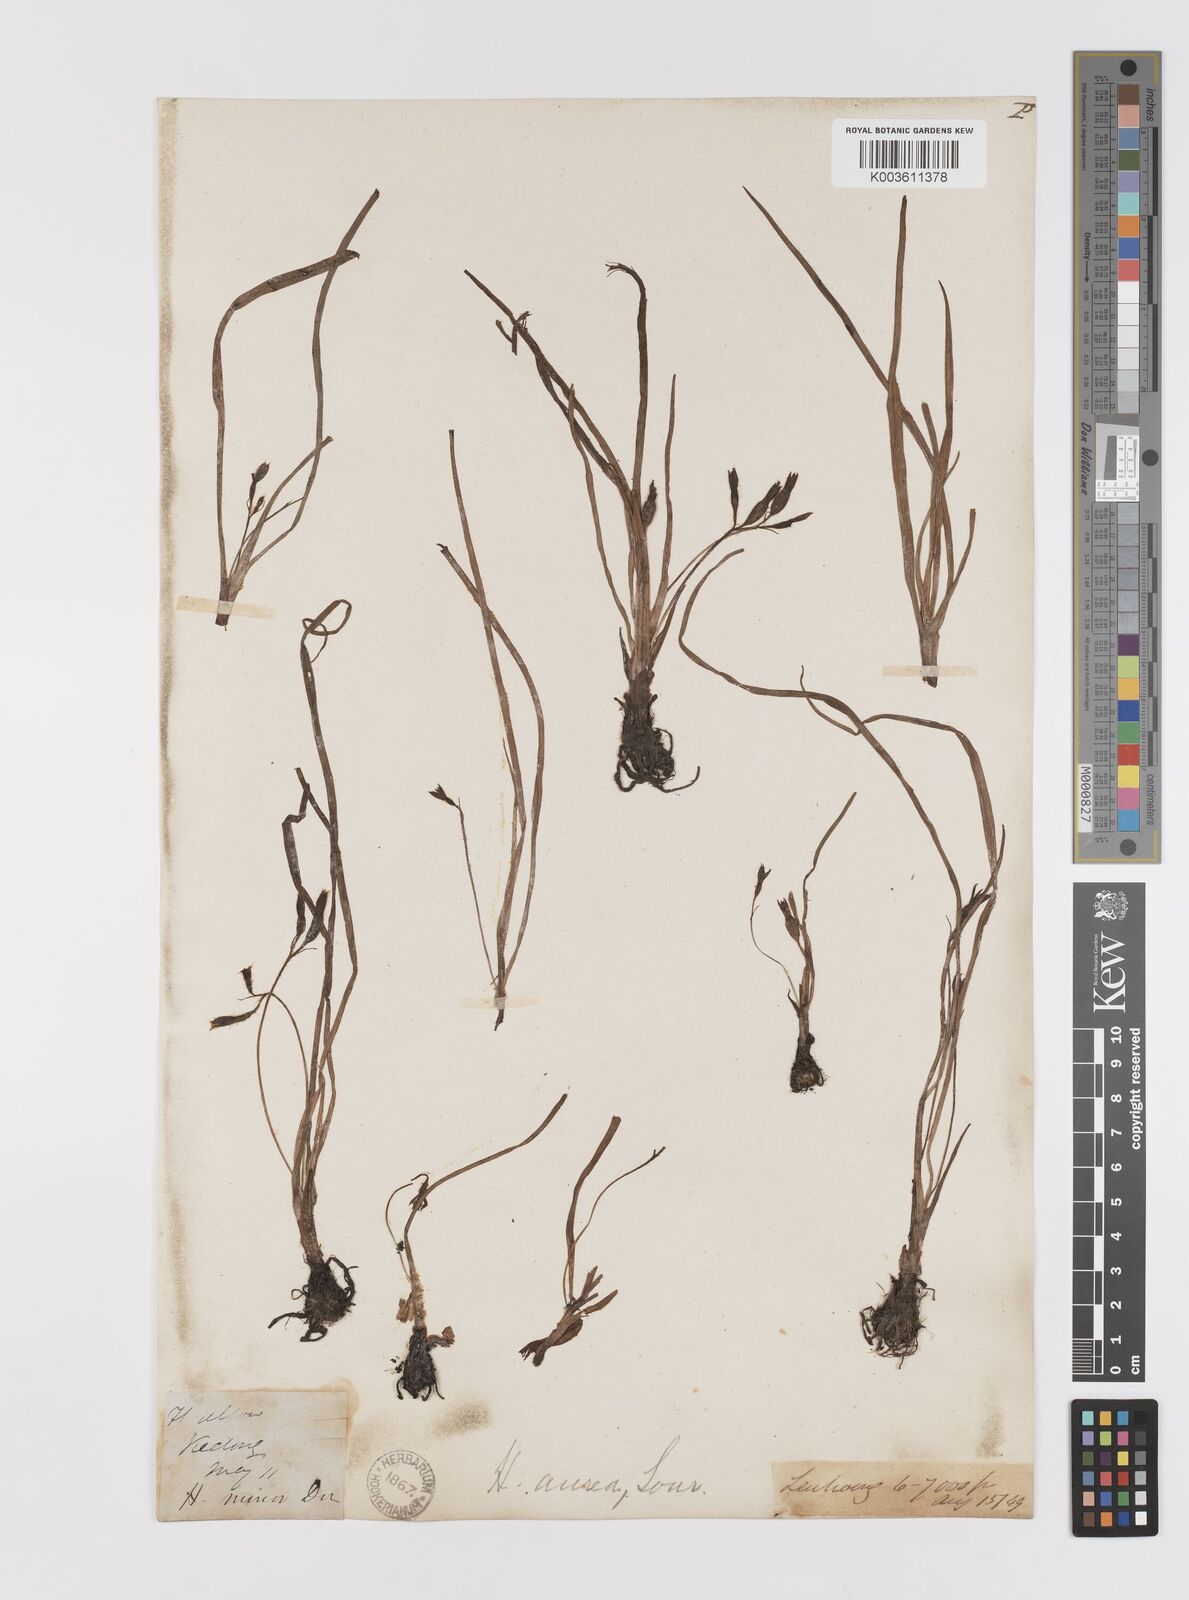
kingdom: Plantae
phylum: Tracheophyta
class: Liliopsida
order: Asparagales
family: Hypoxidaceae
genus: Hypoxis
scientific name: Hypoxis aurea
